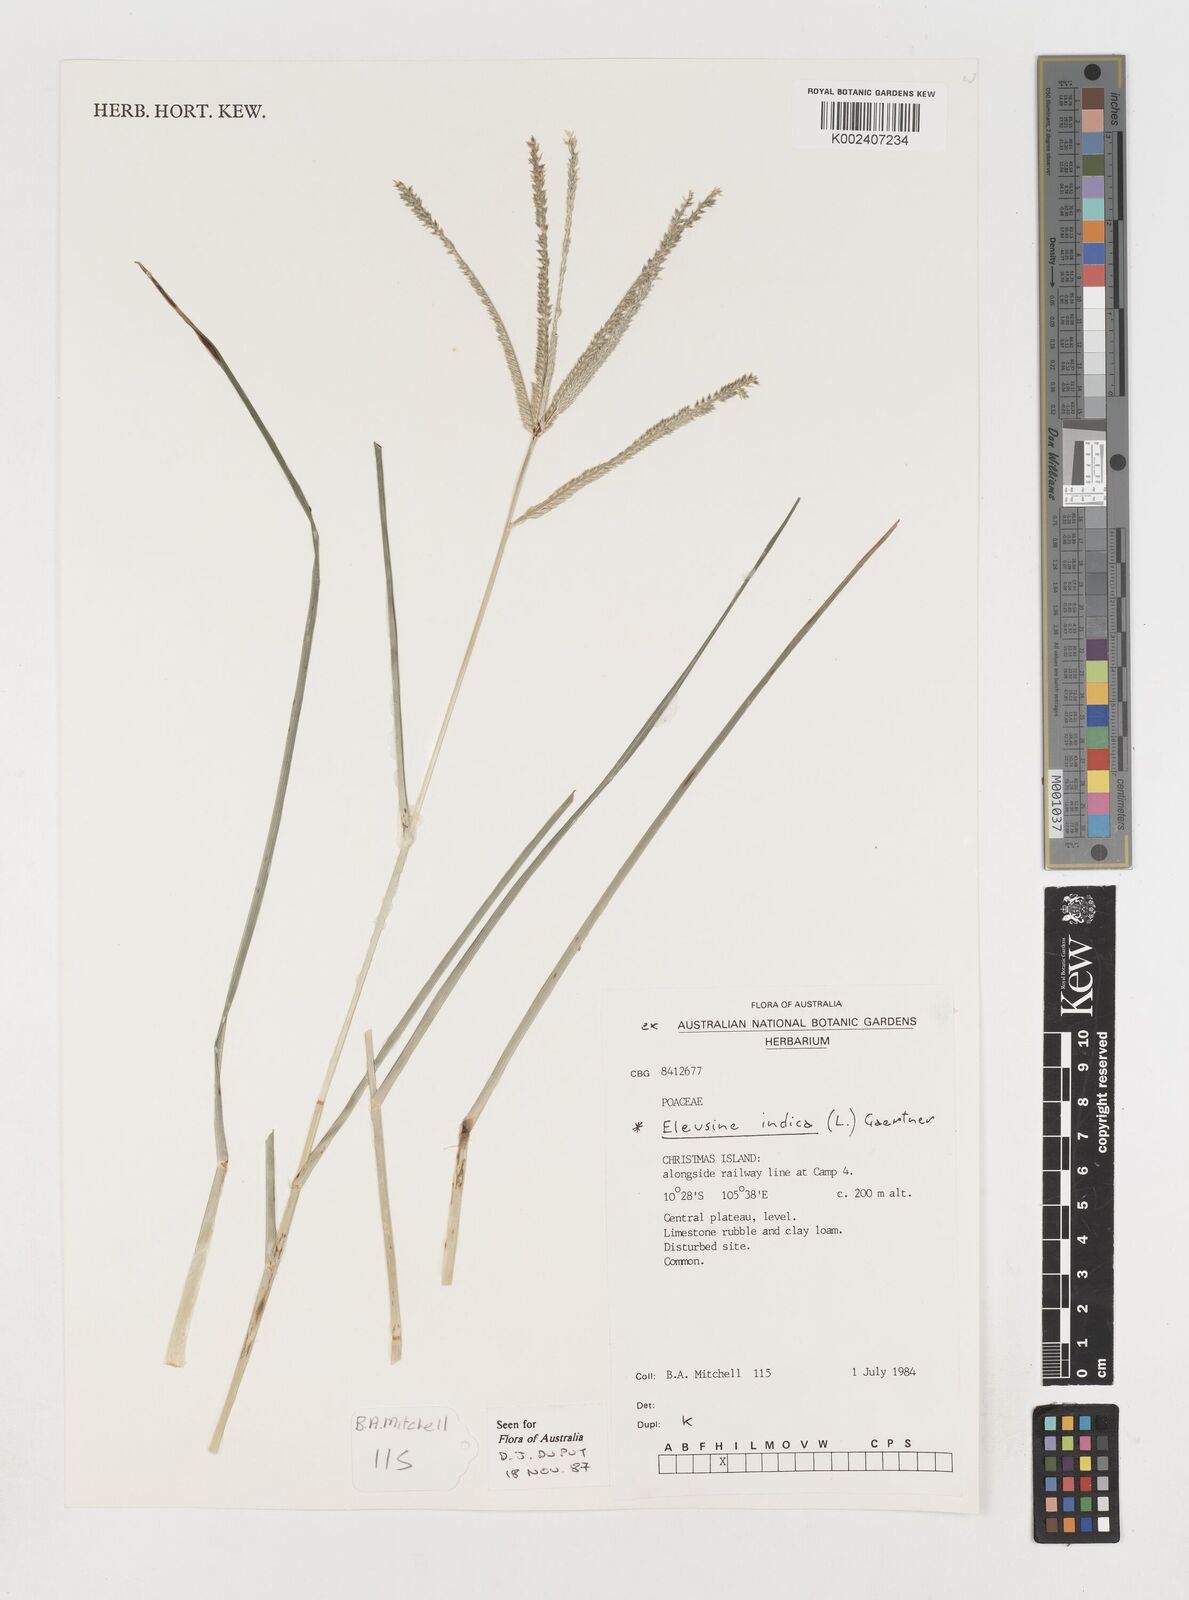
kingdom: Plantae
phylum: Tracheophyta
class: Liliopsida
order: Poales
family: Poaceae
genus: Eleusine
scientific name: Eleusine indica
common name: Yard-grass
